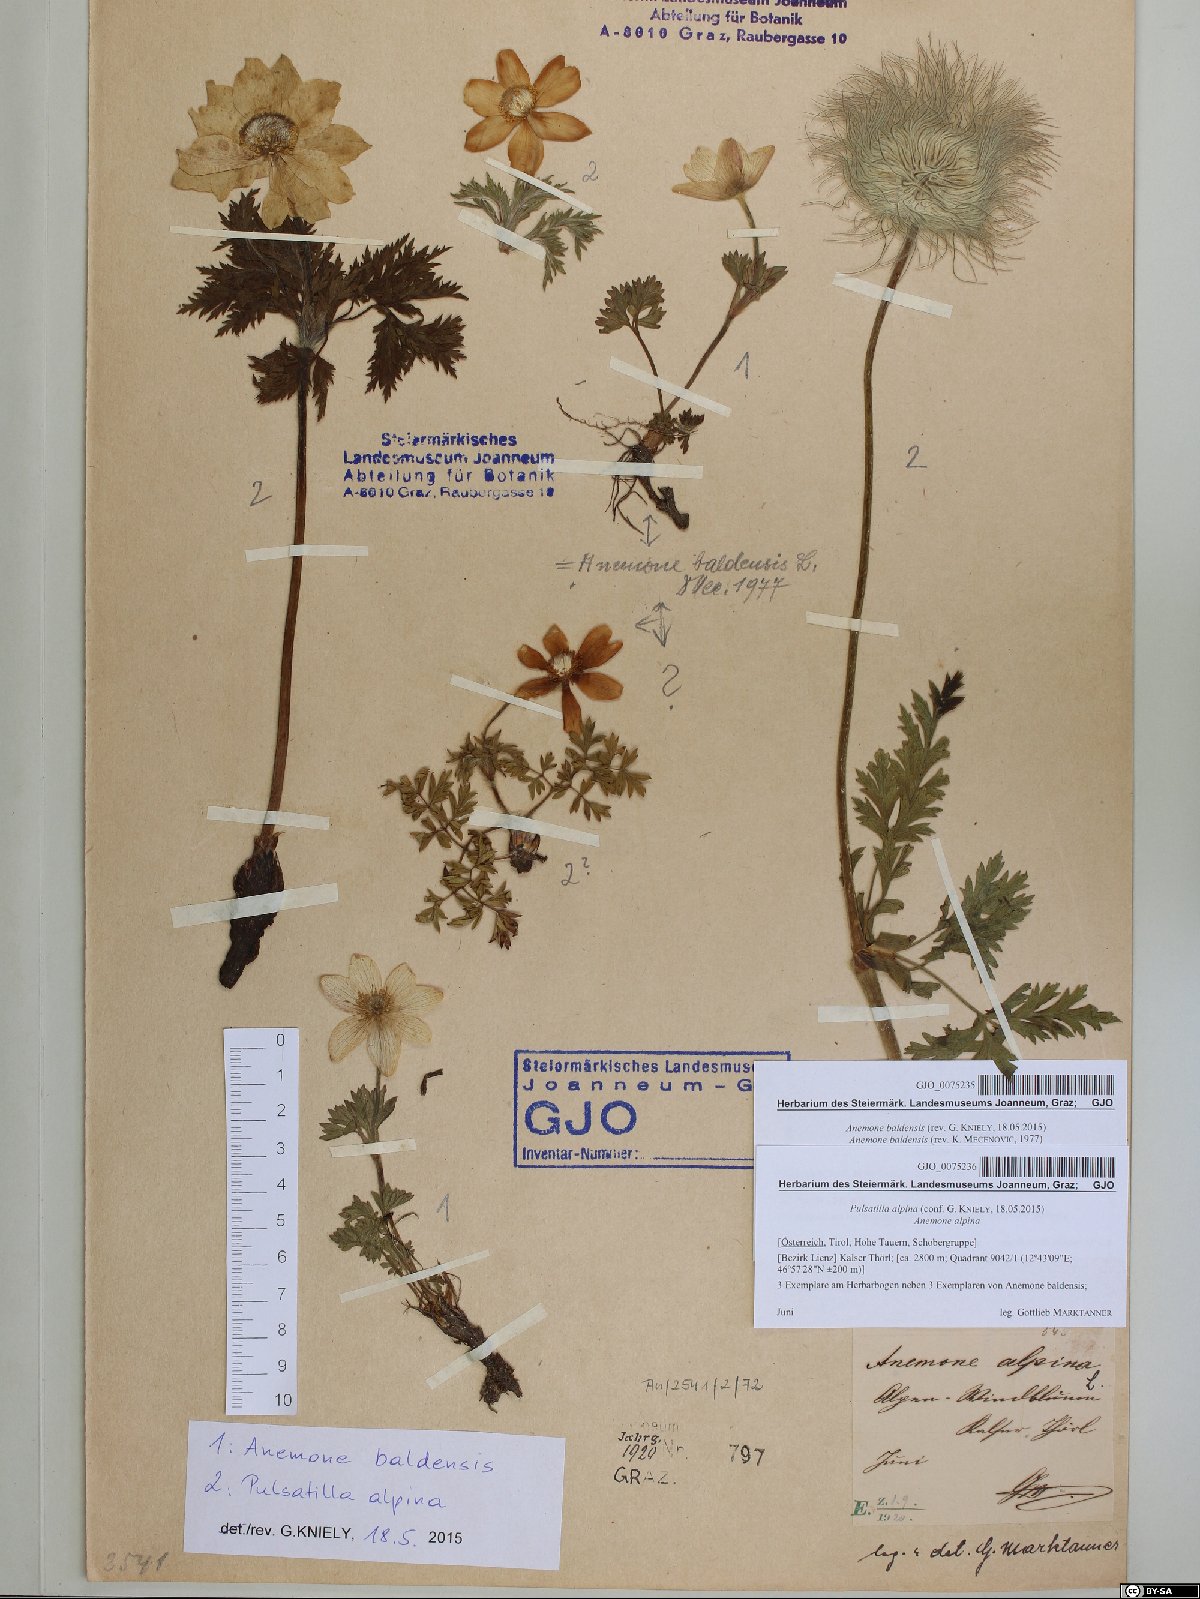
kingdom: Plantae
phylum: Tracheophyta
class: Magnoliopsida
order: Ranunculales
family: Ranunculaceae
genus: Pulsatilla
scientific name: Pulsatilla alpina
